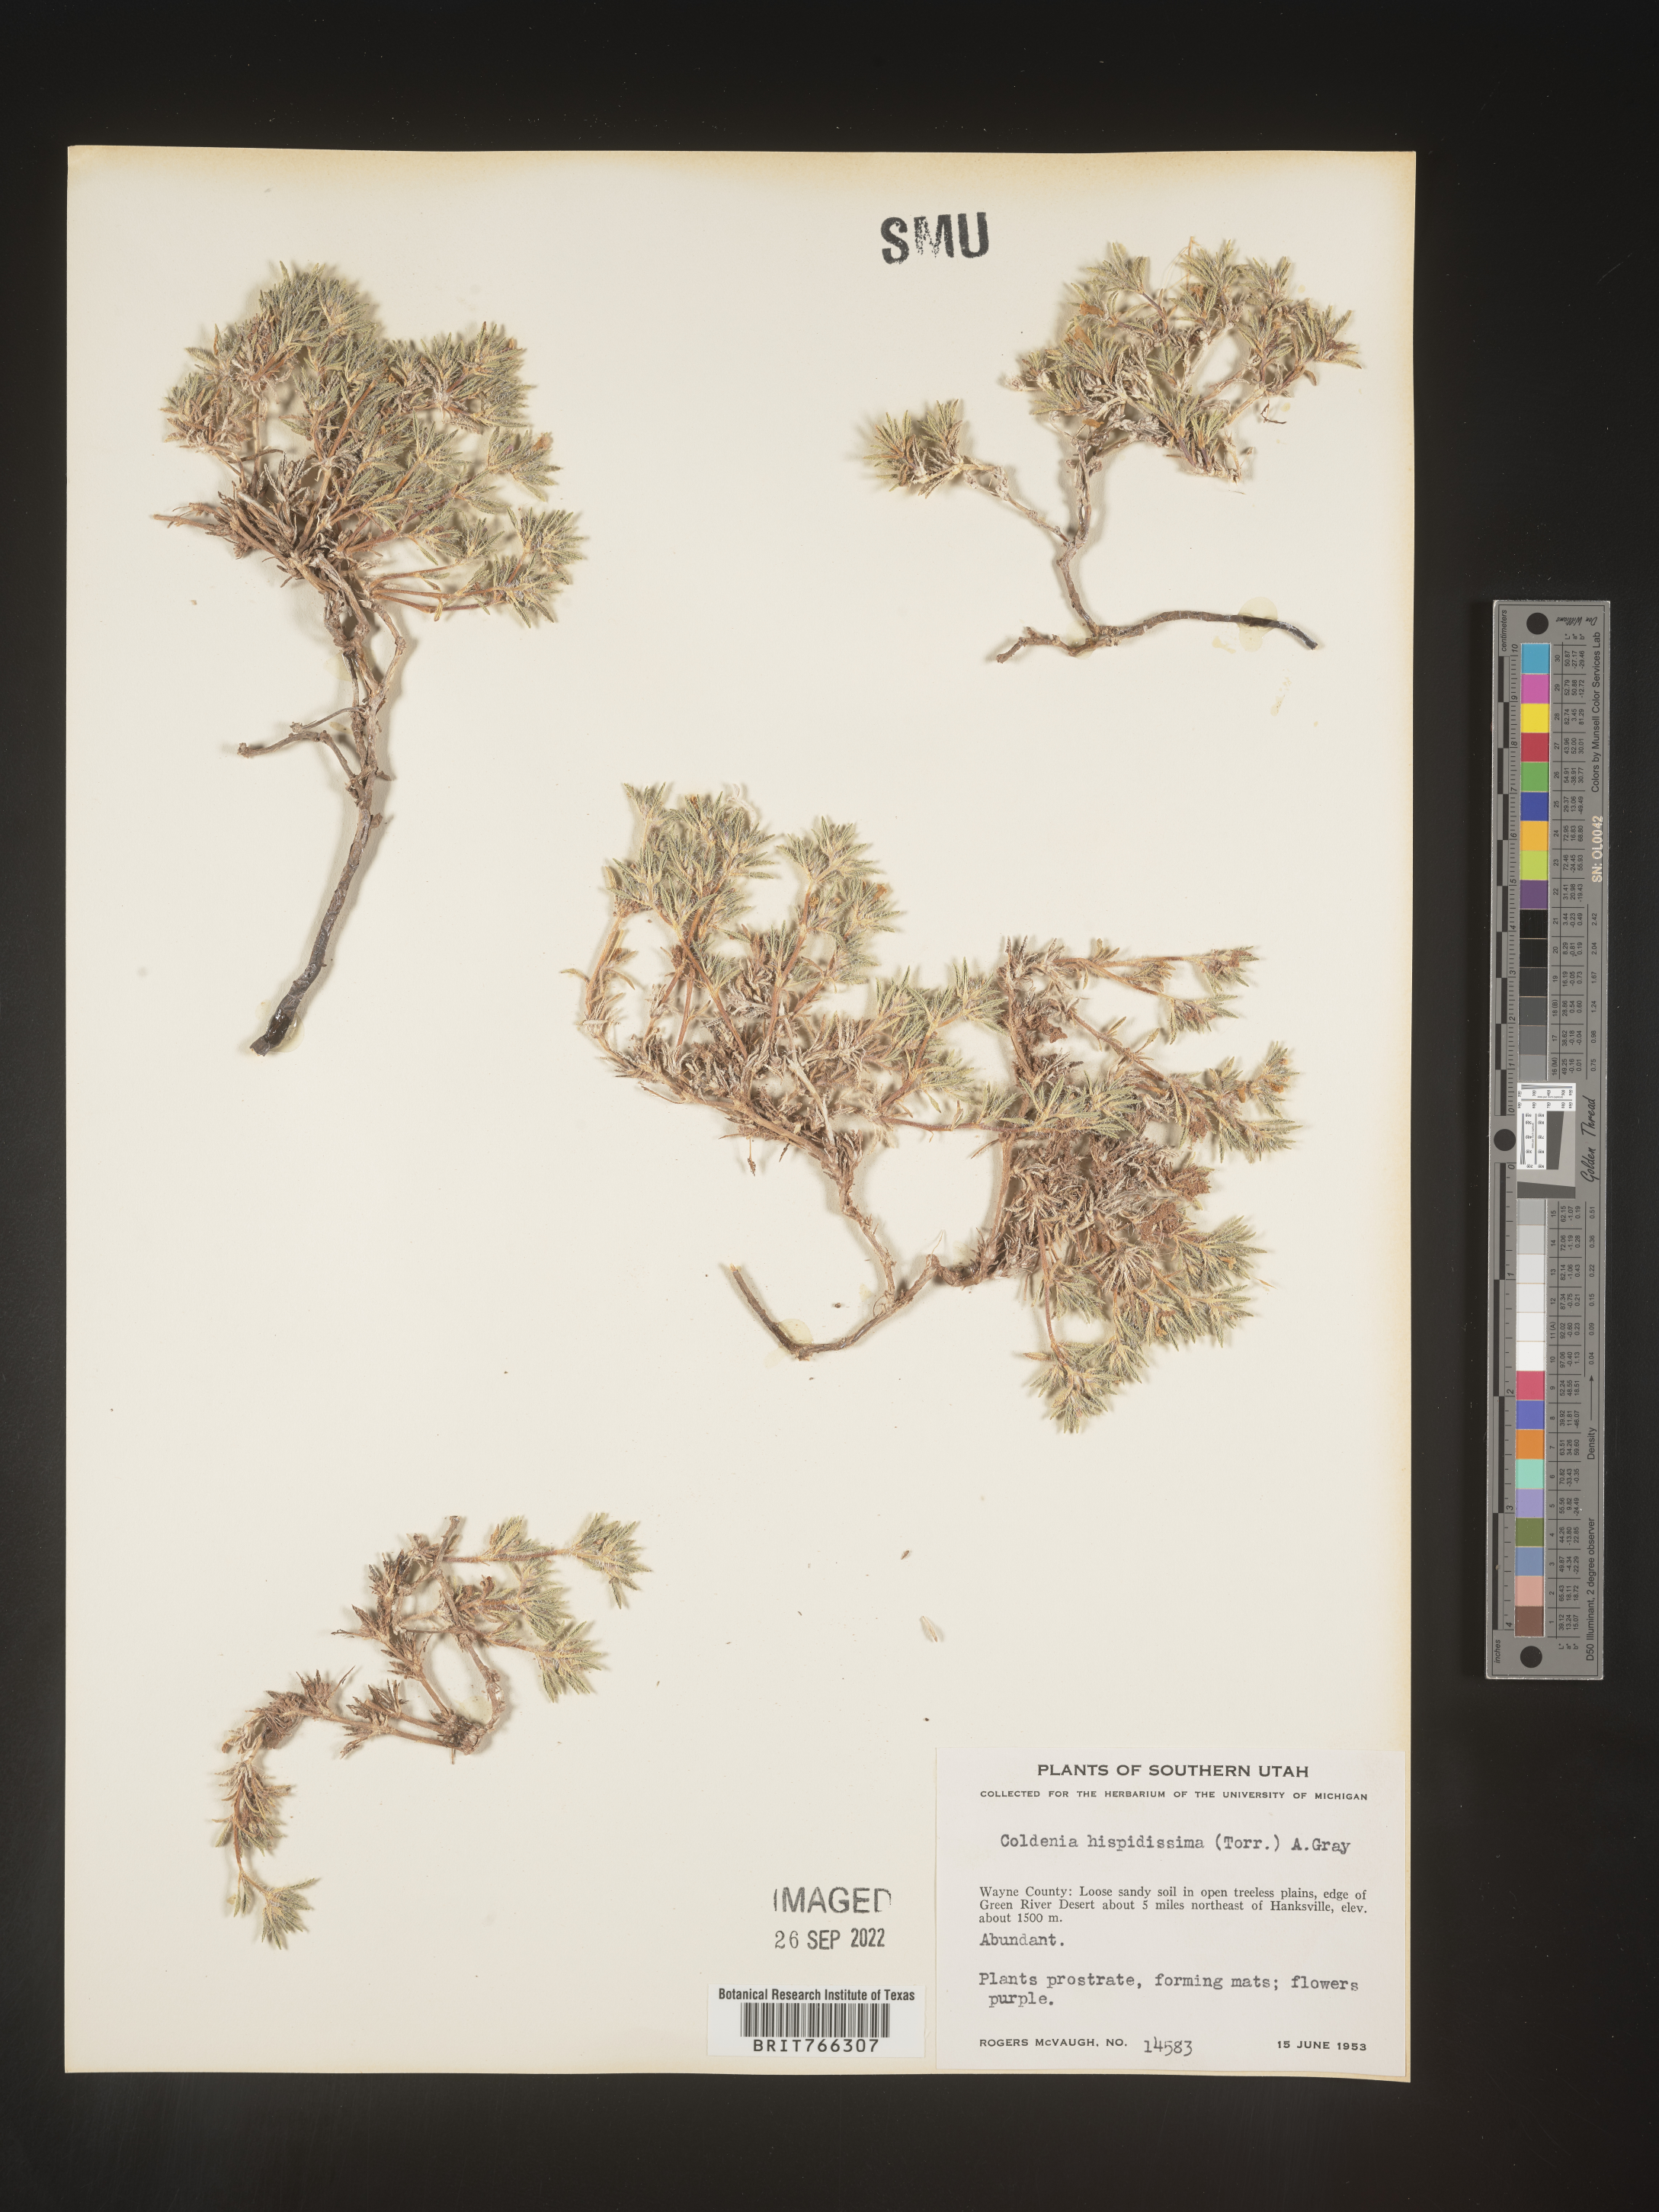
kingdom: Plantae
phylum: Tracheophyta
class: Magnoliopsida
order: Boraginales
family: Coldeniaceae
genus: Coldenia
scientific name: Coldenia
